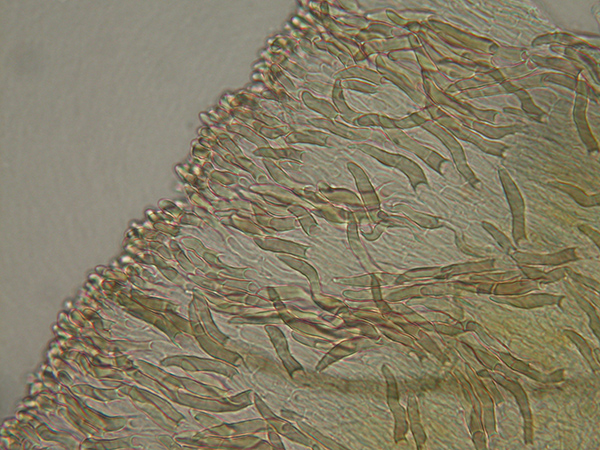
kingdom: Fungi
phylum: Ascomycota
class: Leotiomycetes
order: Helotiales
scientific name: Helotiales
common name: stilkskiveordenen
